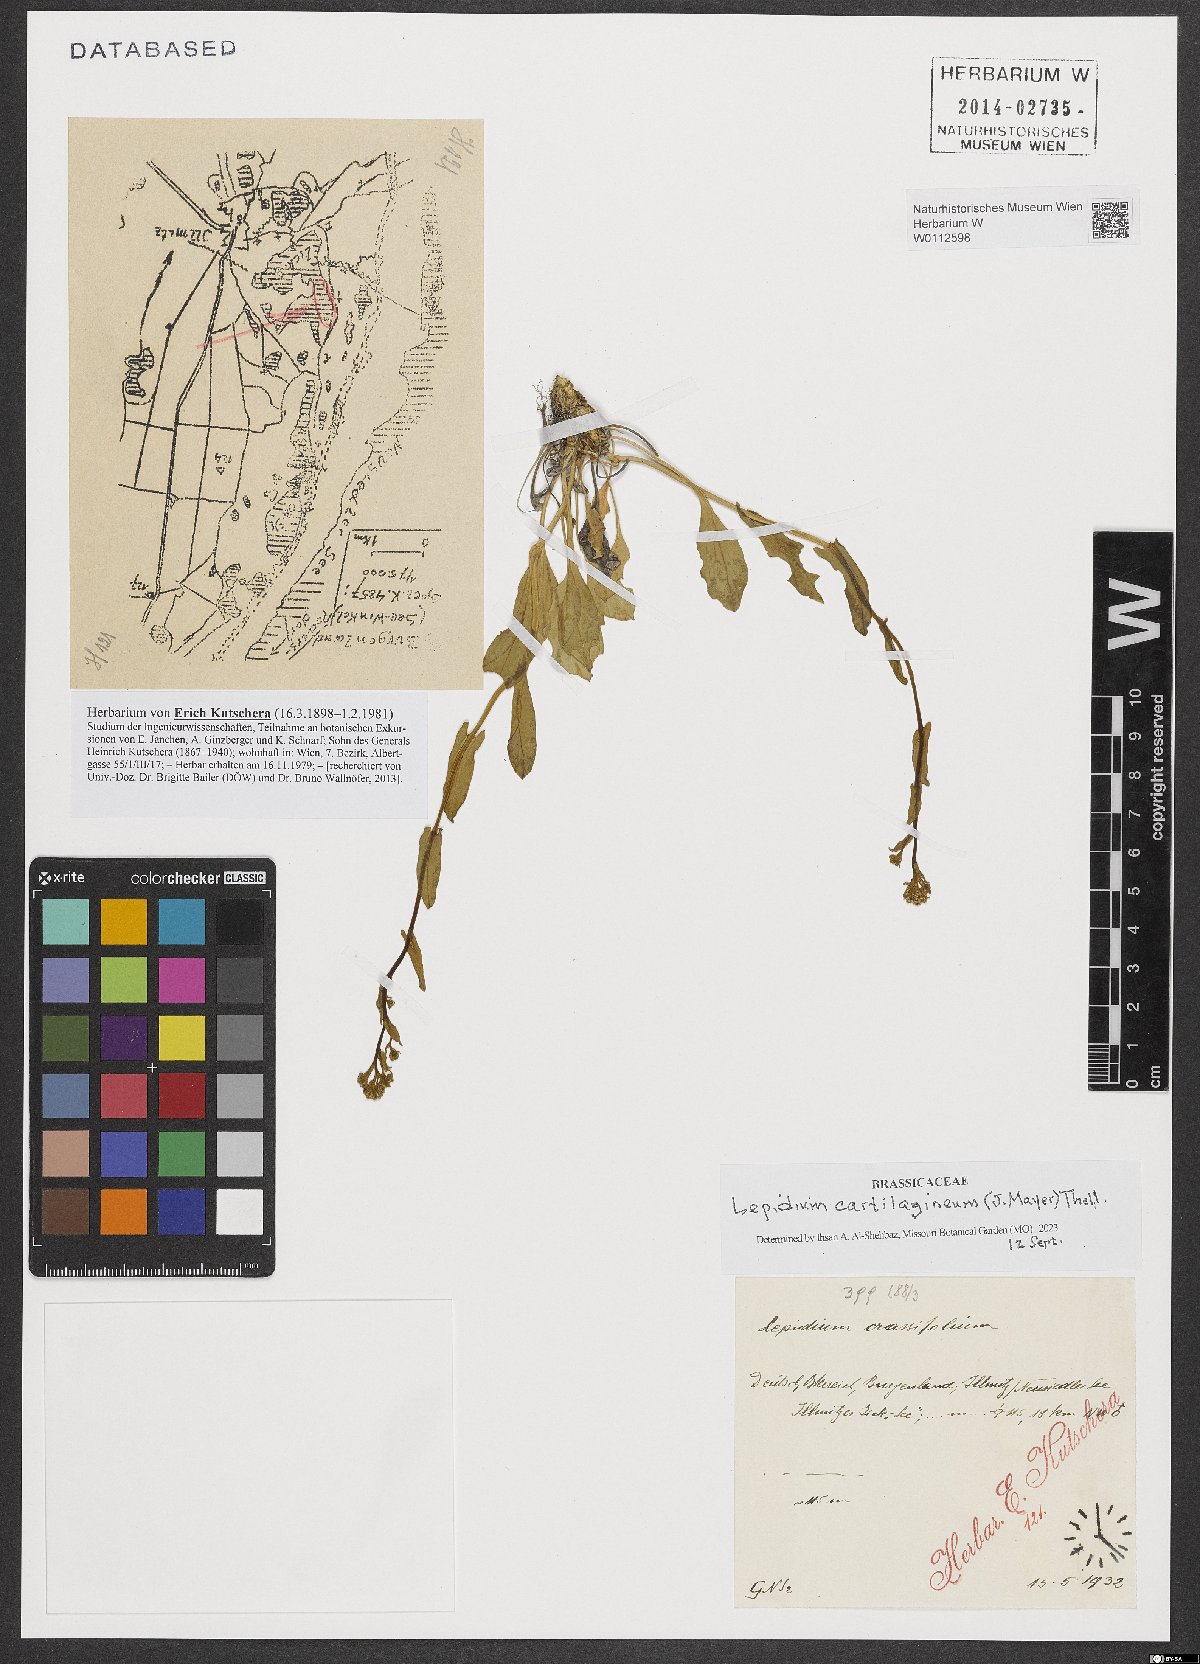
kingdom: Plantae
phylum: Tracheophyta
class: Magnoliopsida
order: Brassicales
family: Brassicaceae
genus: Lepidium
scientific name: Lepidium cartilagineum
